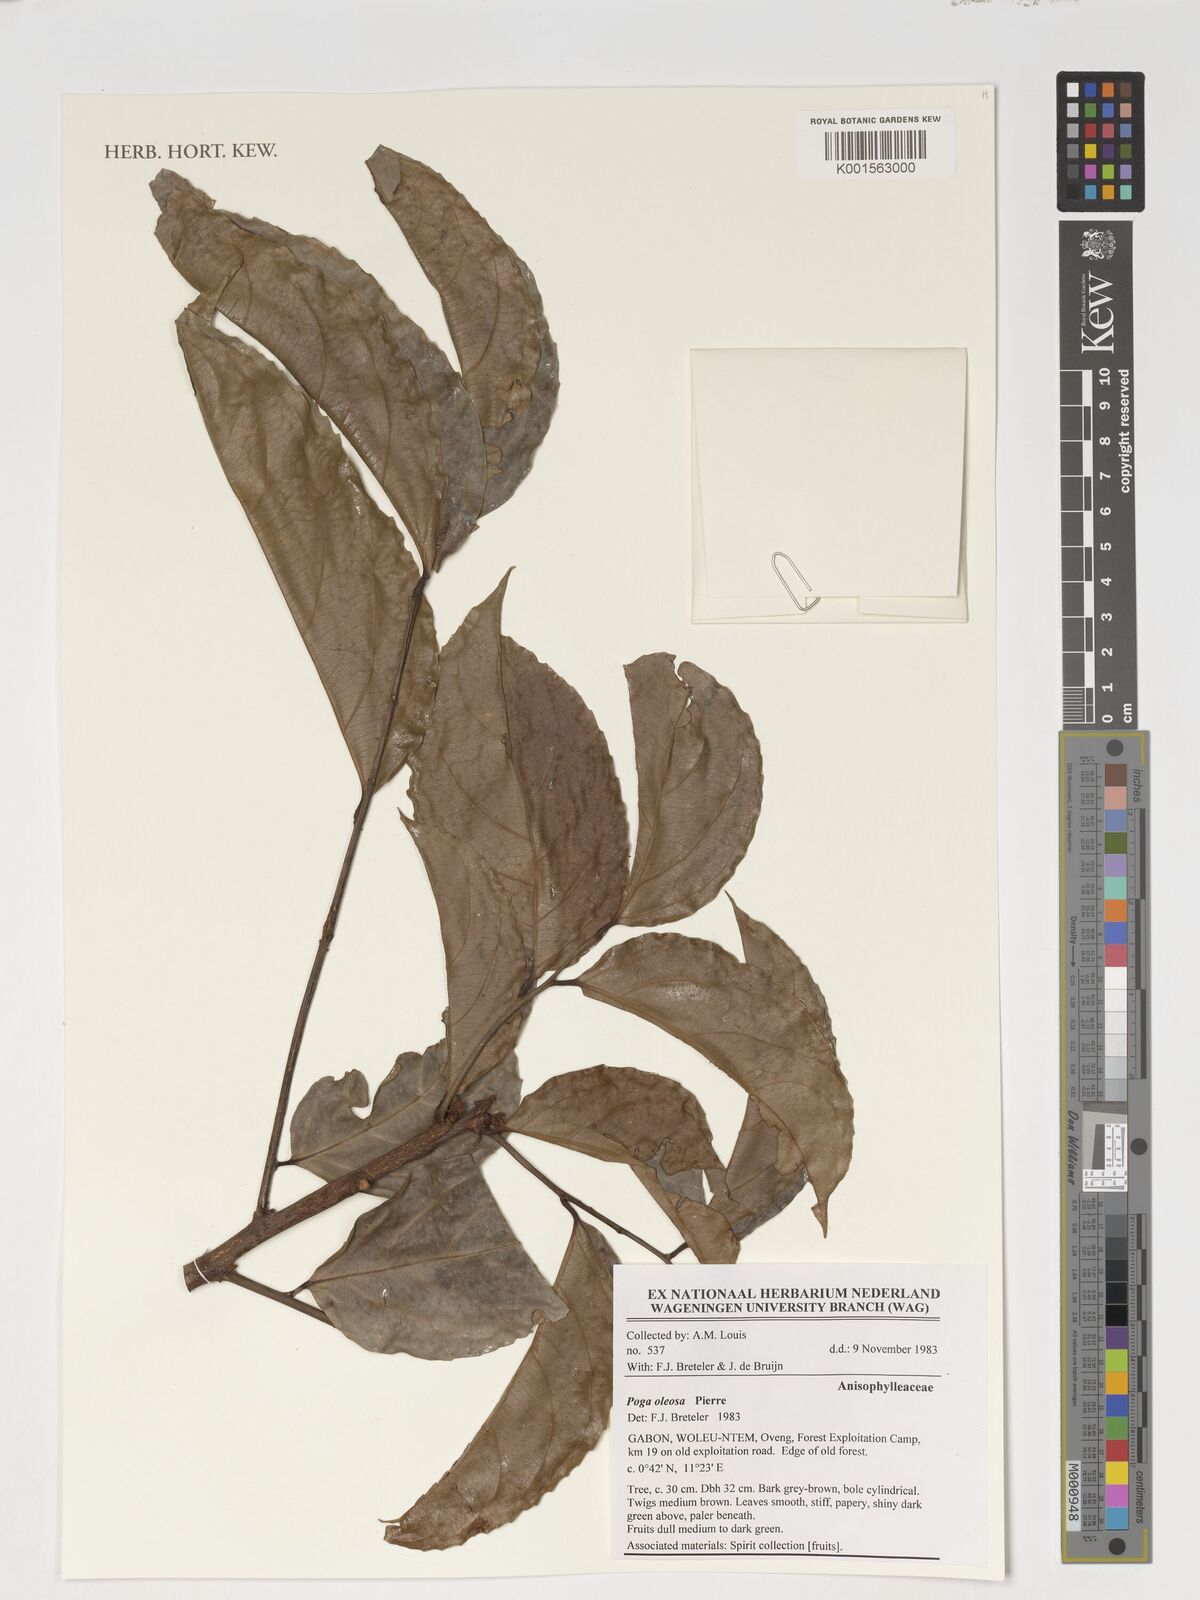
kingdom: Plantae
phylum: Tracheophyta
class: Magnoliopsida
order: Cucurbitales
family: Anisophylleaceae
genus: Poga
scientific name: Poga oleosa
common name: African brazil nut
